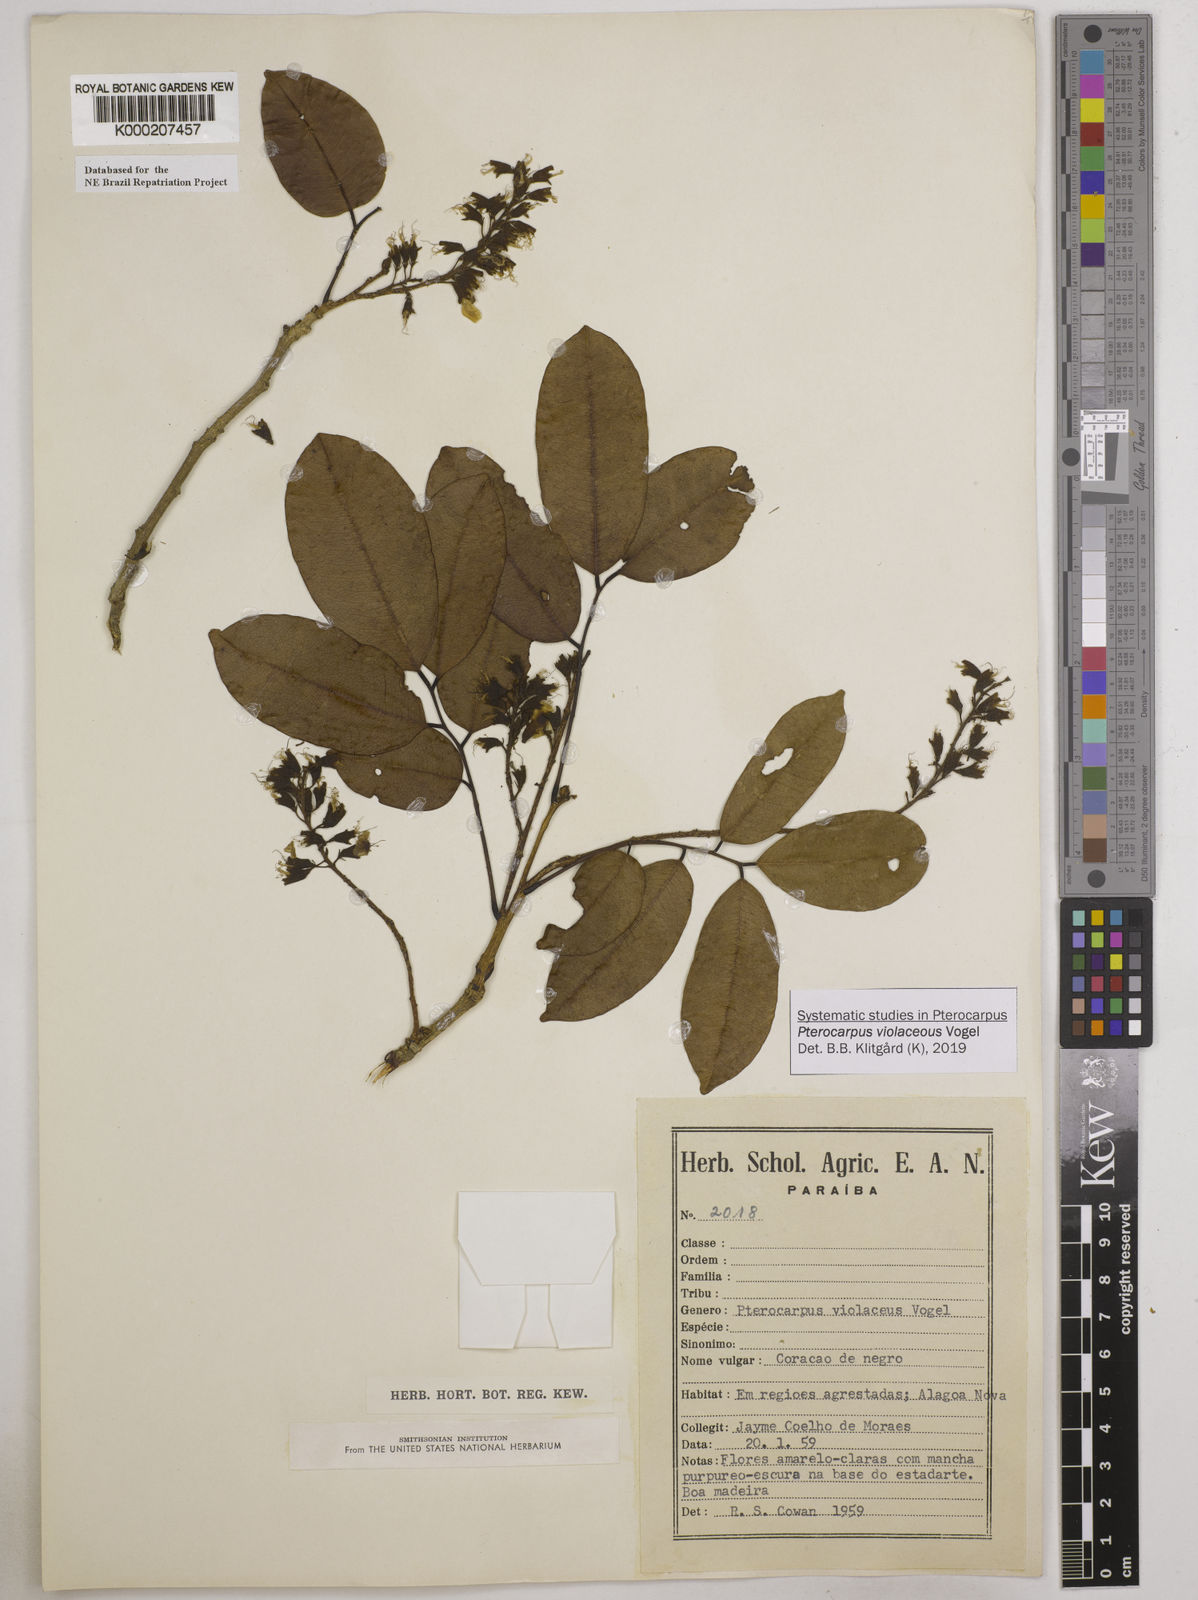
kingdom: Plantae
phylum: Tracheophyta
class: Magnoliopsida
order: Fabales
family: Fabaceae
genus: Pterocarpus
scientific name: Pterocarpus rohrii
